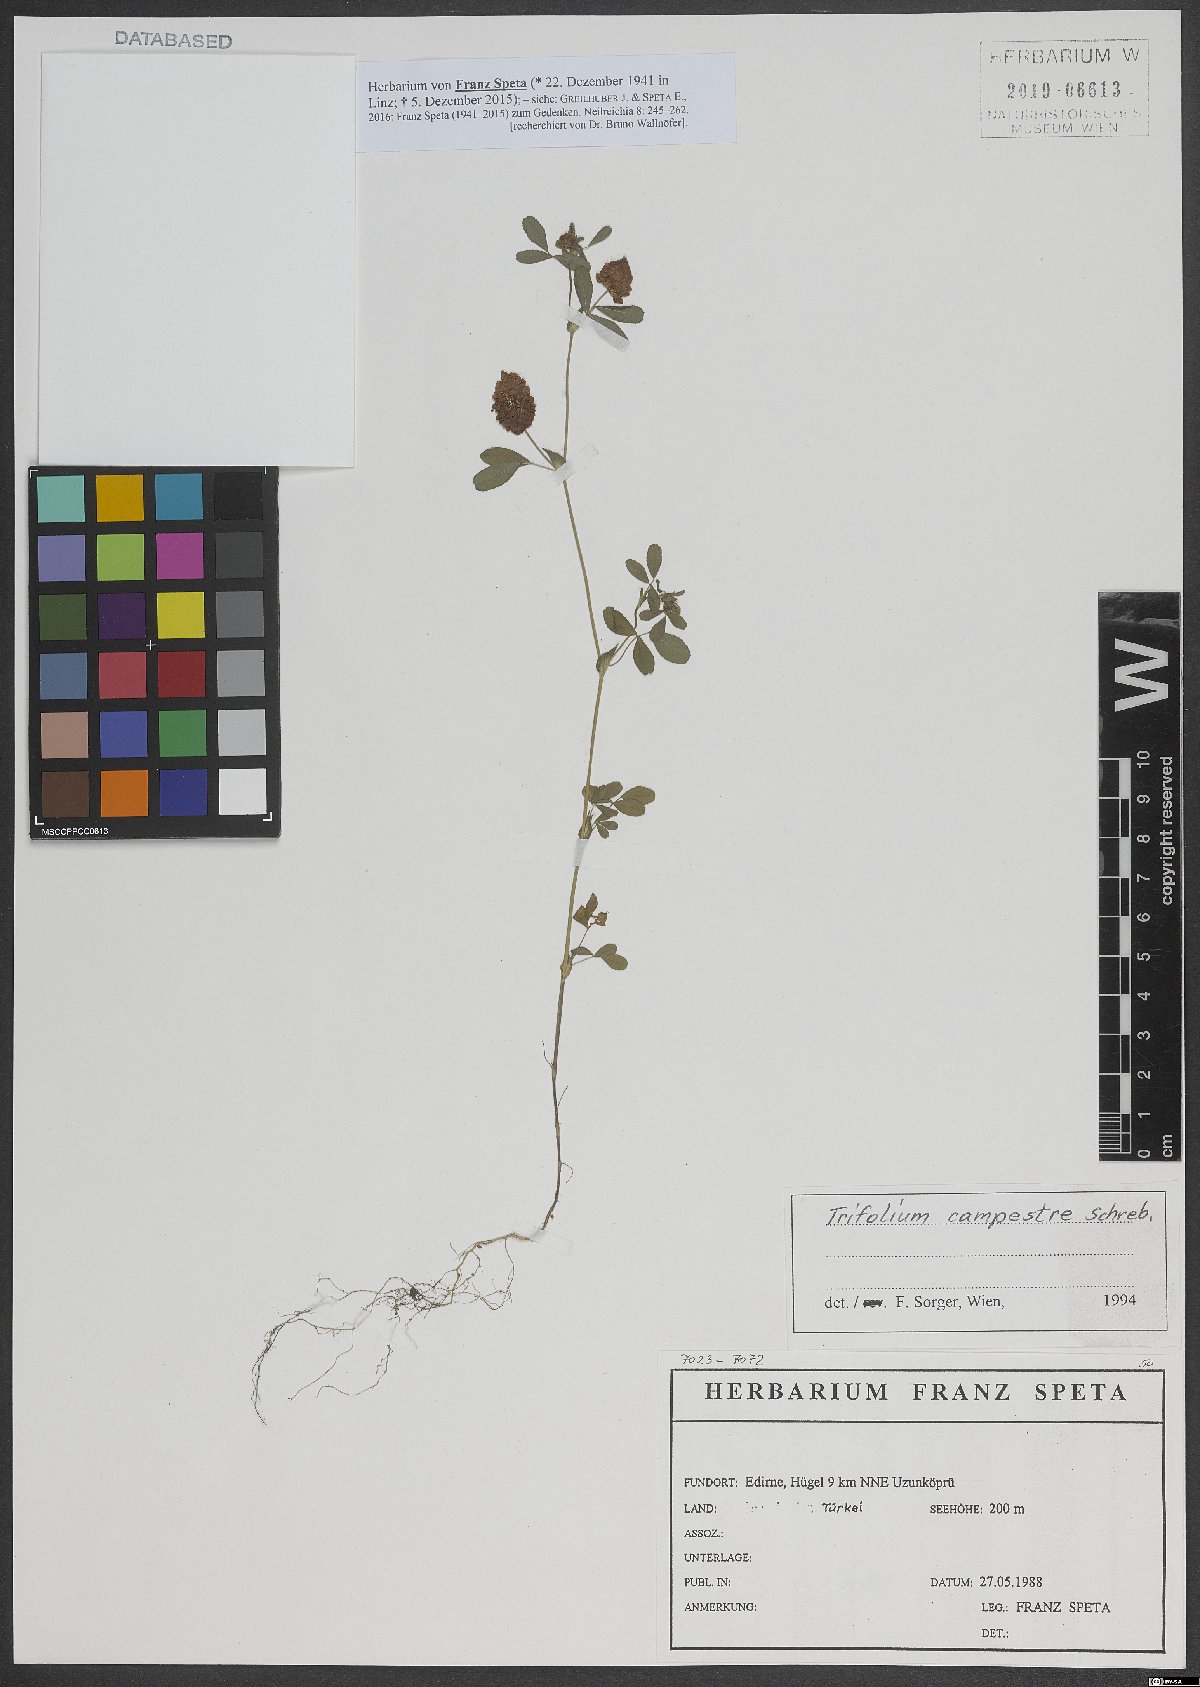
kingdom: Plantae
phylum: Tracheophyta
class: Magnoliopsida
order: Fabales
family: Fabaceae
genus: Trifolium
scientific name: Trifolium campestre
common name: Field clover
